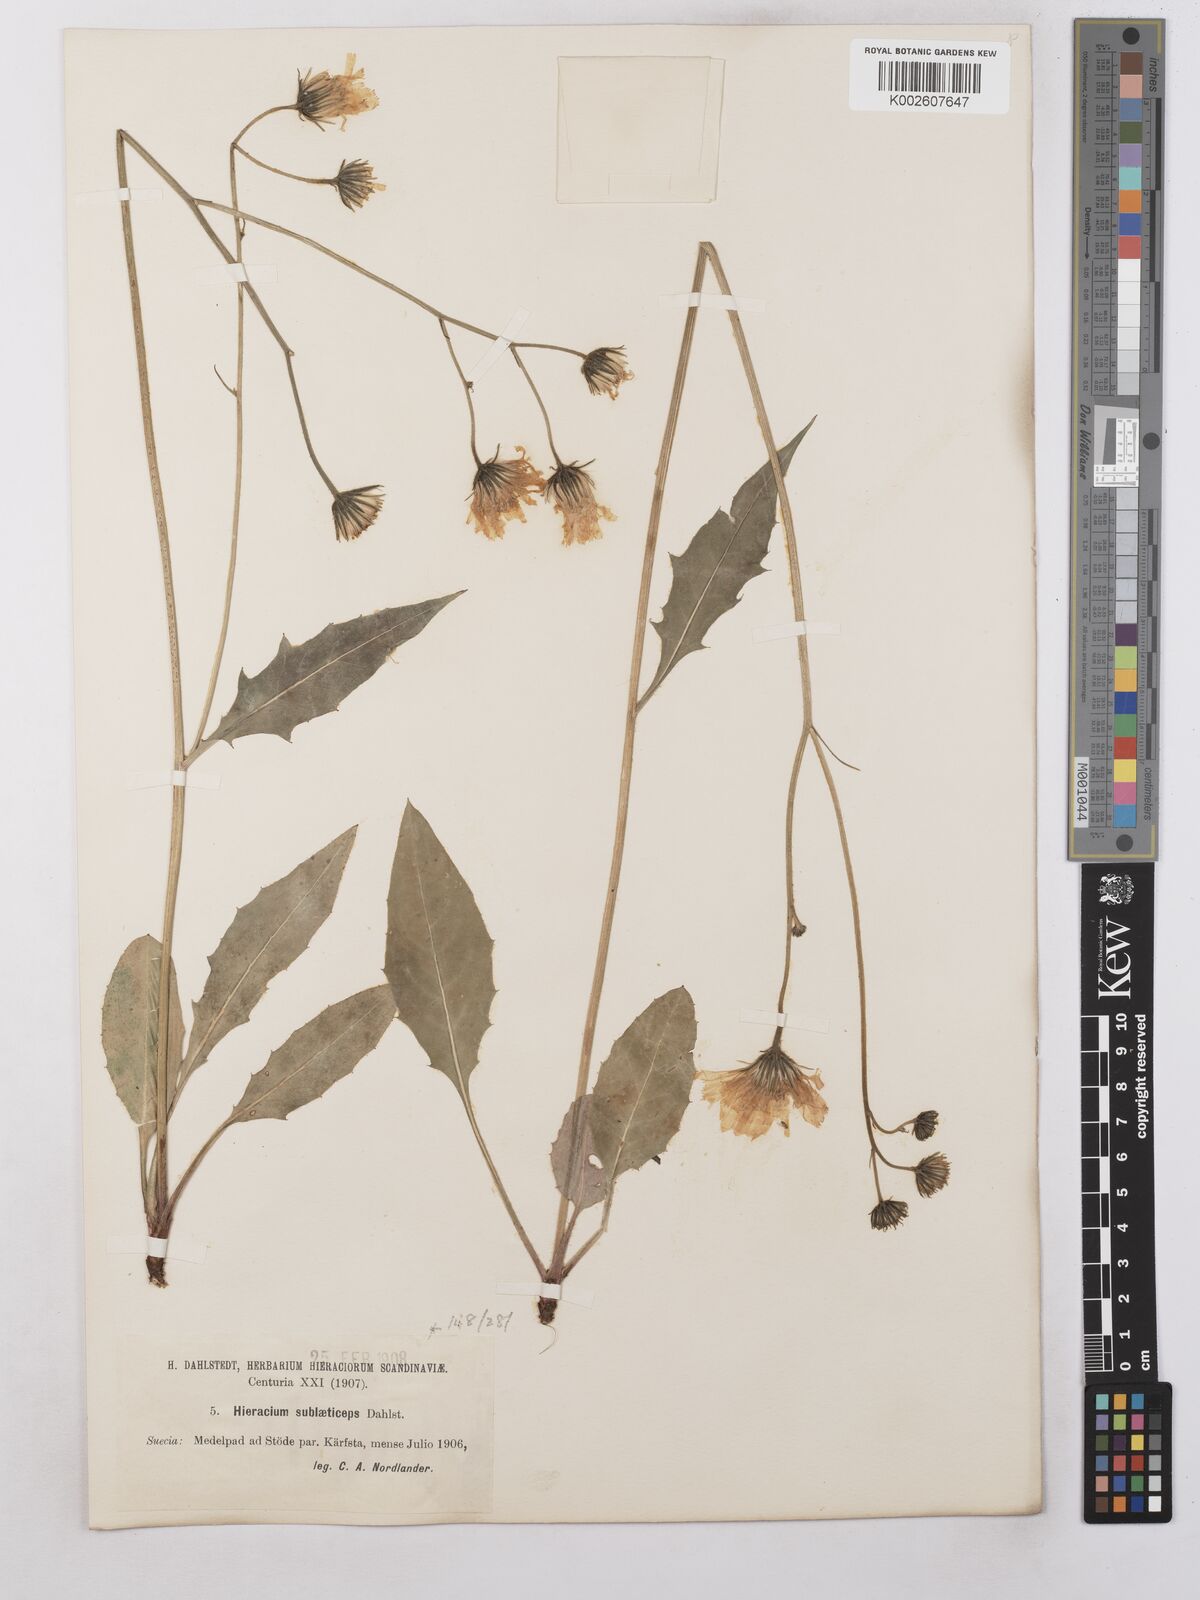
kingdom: Plantae
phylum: Tracheophyta
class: Magnoliopsida
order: Asterales
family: Asteraceae
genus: Hieracium
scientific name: Hieracium subramosum
